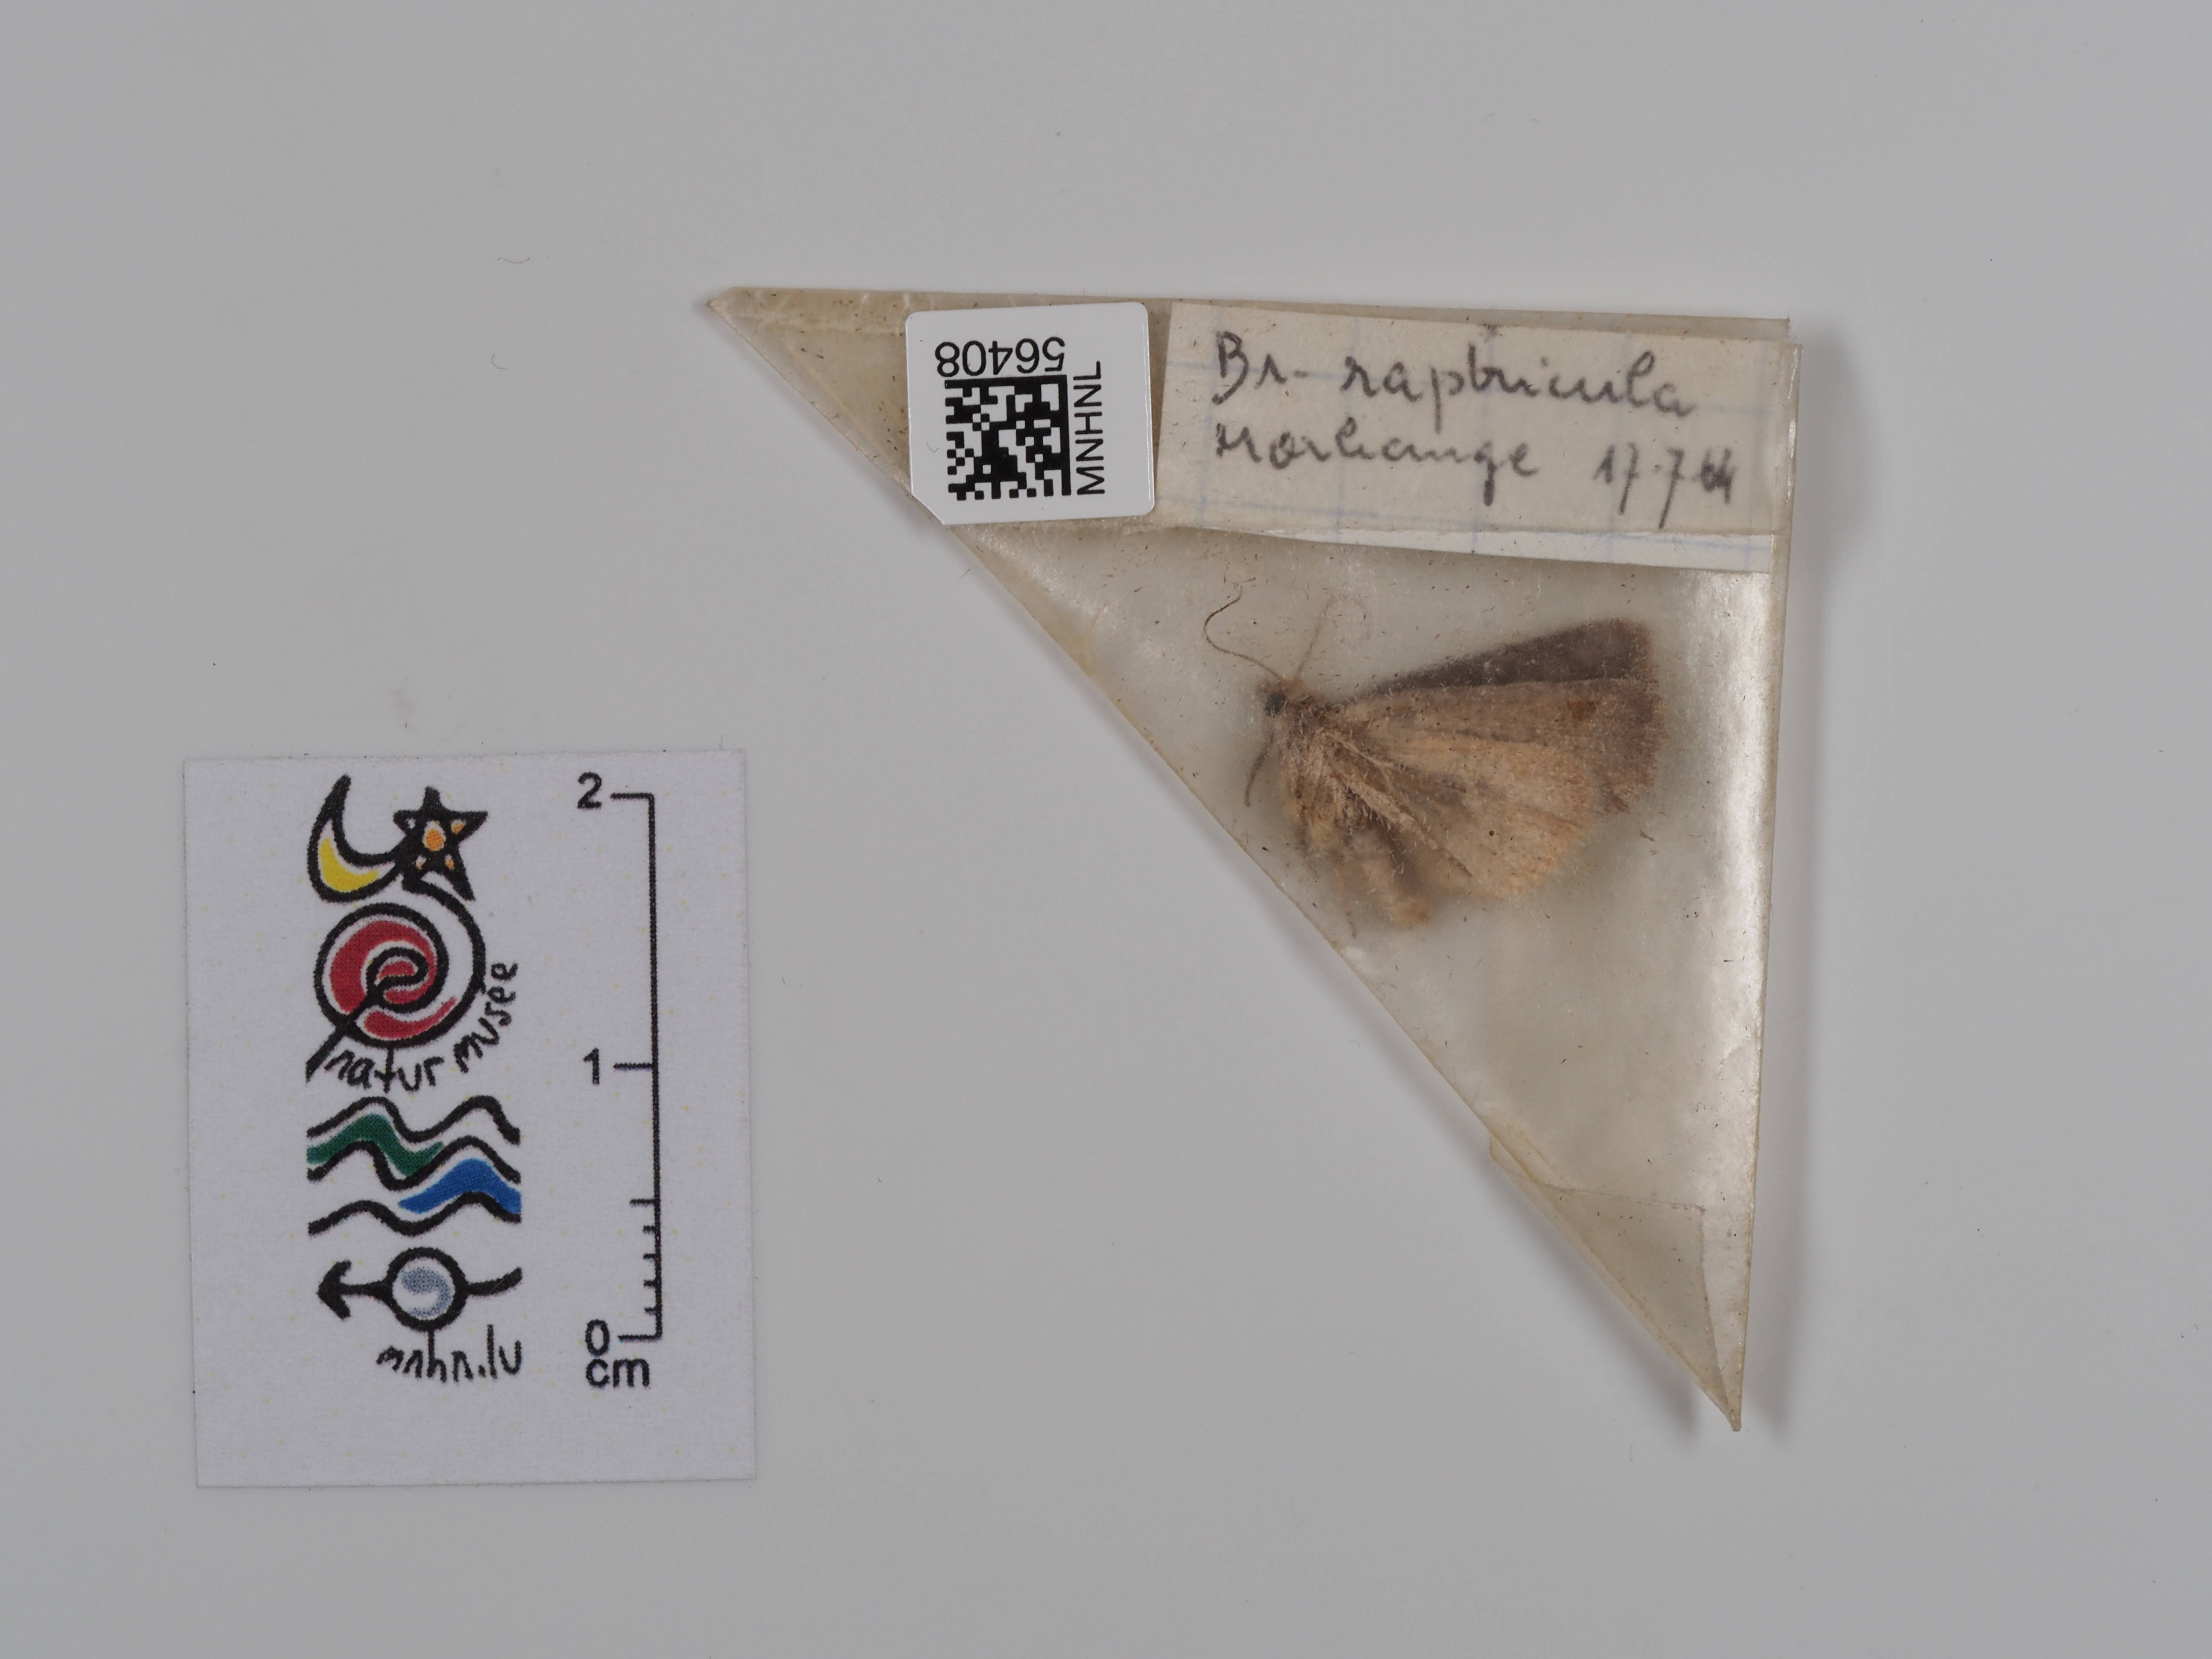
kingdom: Animalia
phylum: Arthropoda
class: Insecta
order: Lepidoptera
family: Noctuidae
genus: Bryophila
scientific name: Bryophila raptricula
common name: Marbled grey
